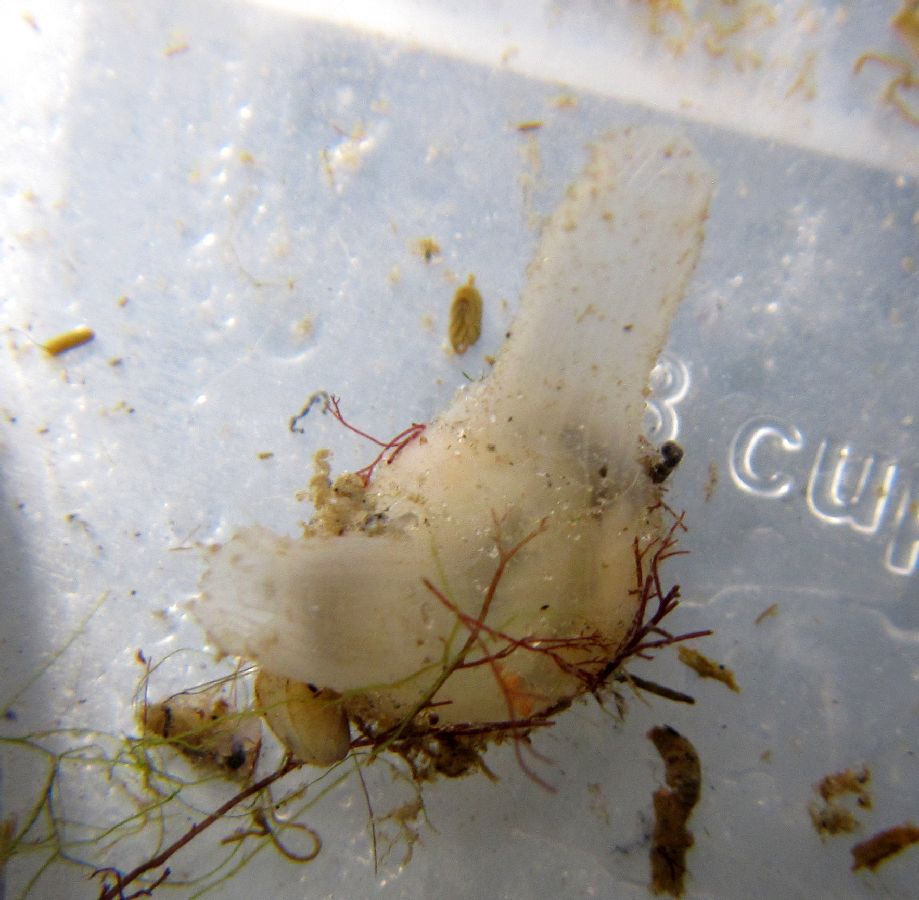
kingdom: Animalia
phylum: Chordata
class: Ascidiacea
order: Stolidobranchia
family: Molgulidae
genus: Molgula
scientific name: Molgula citrina
